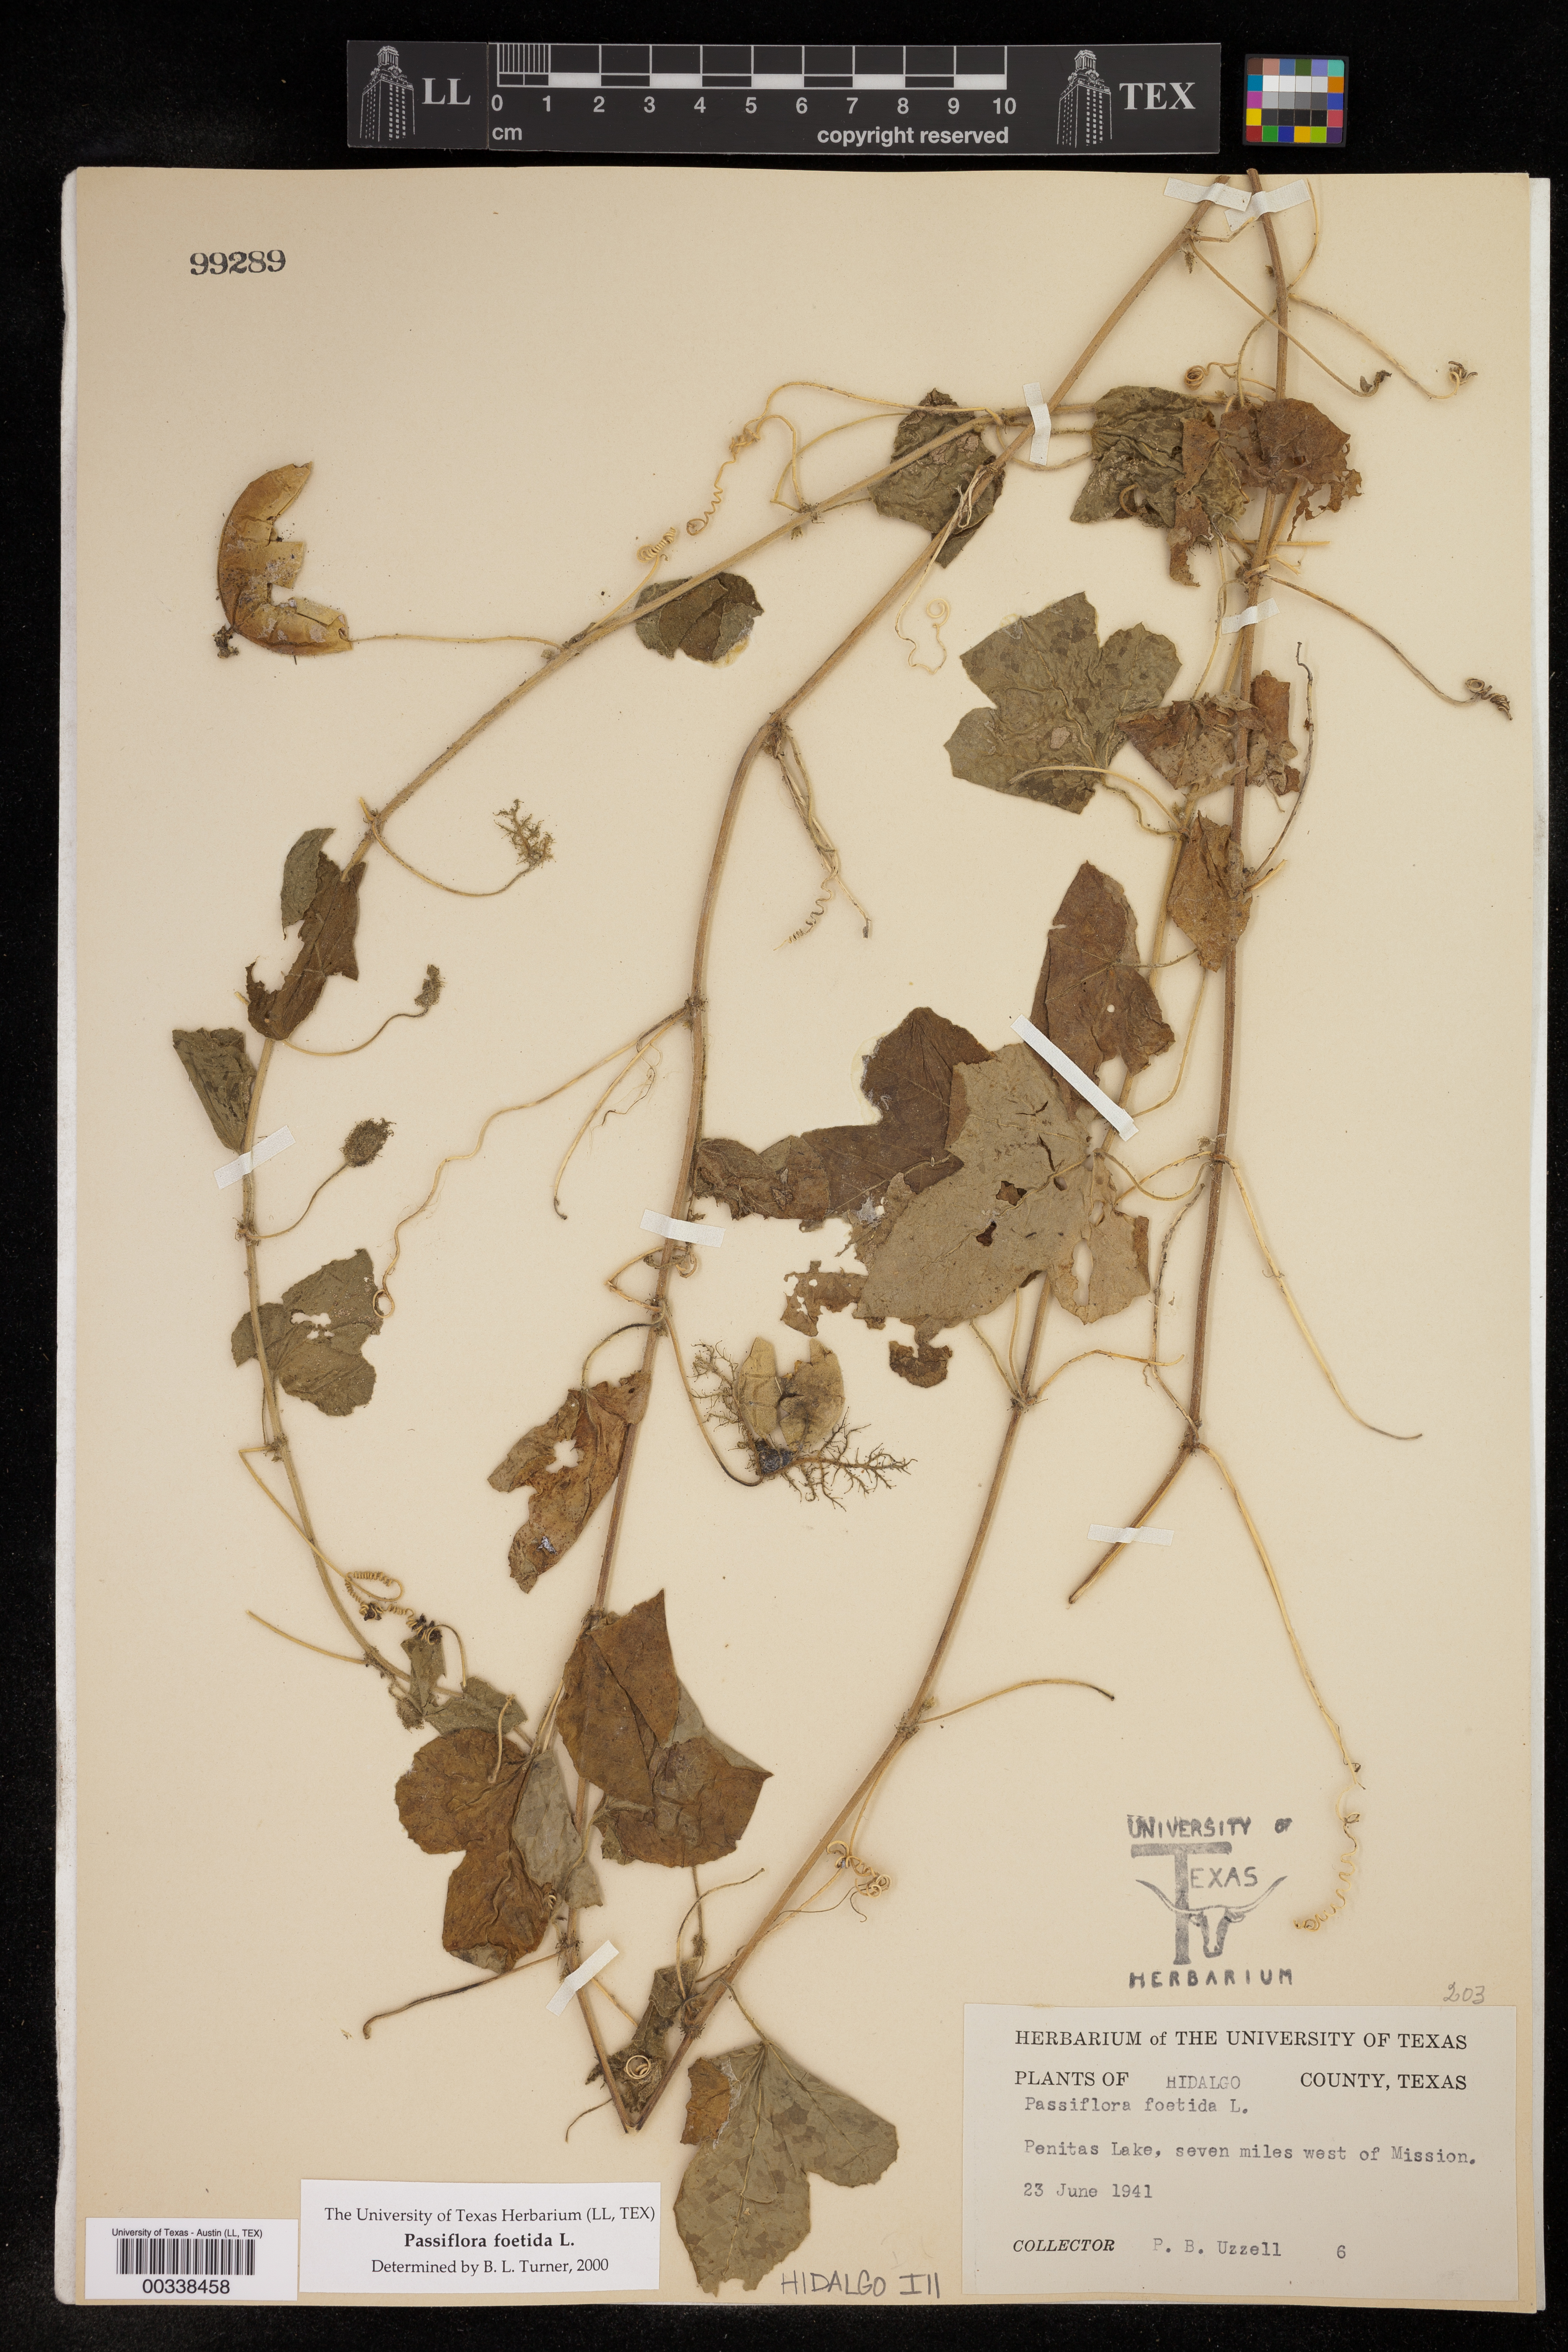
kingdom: Plantae
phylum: Tracheophyta
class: Magnoliopsida
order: Malpighiales
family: Passifloraceae
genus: Passiflora
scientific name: Passiflora foetida
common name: Fetid passionflower
